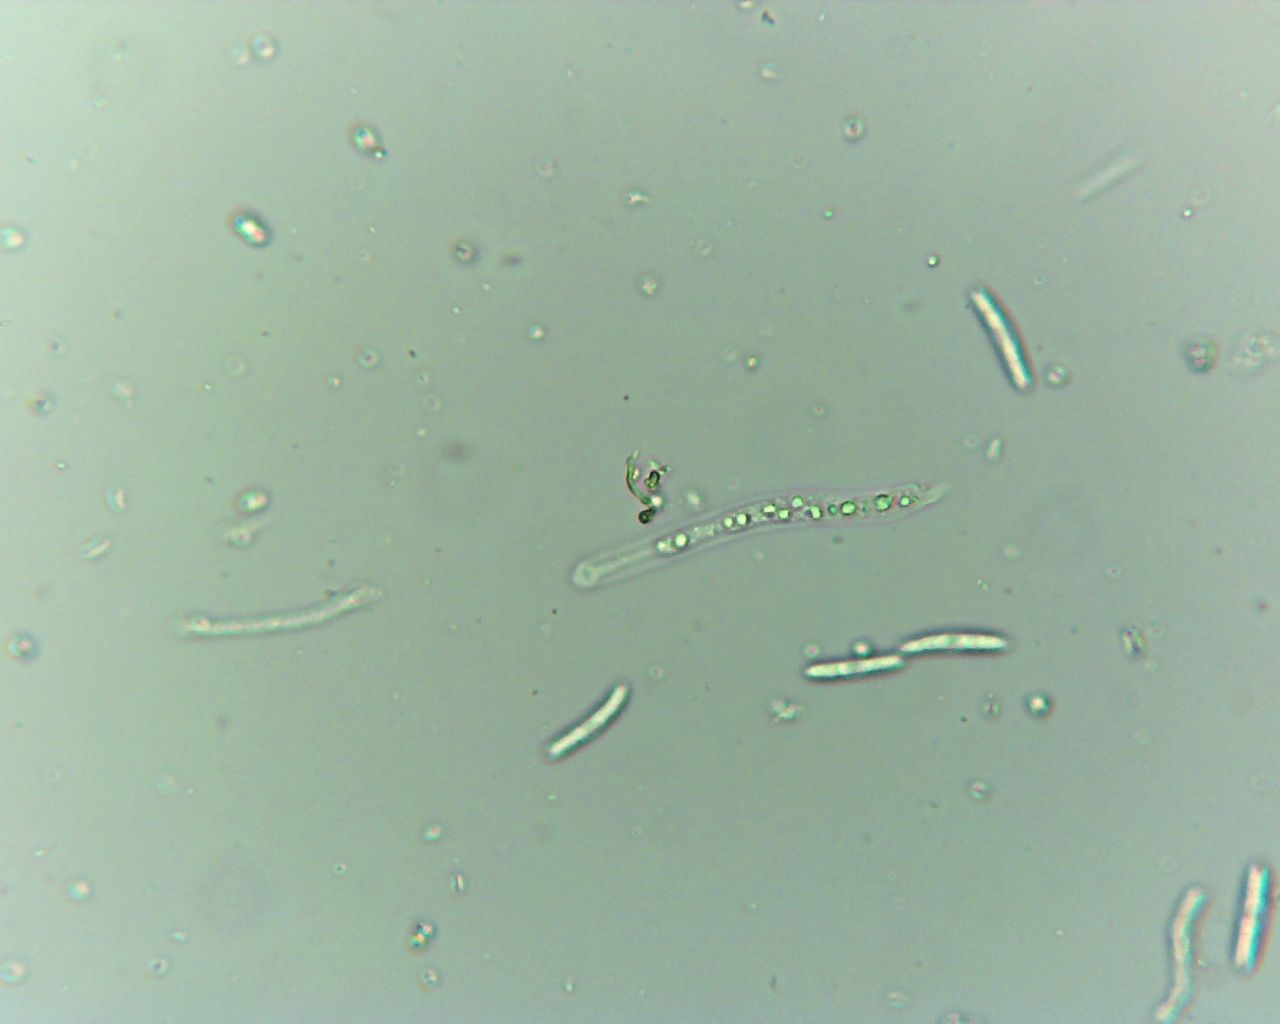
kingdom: Fungi
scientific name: Fungi
